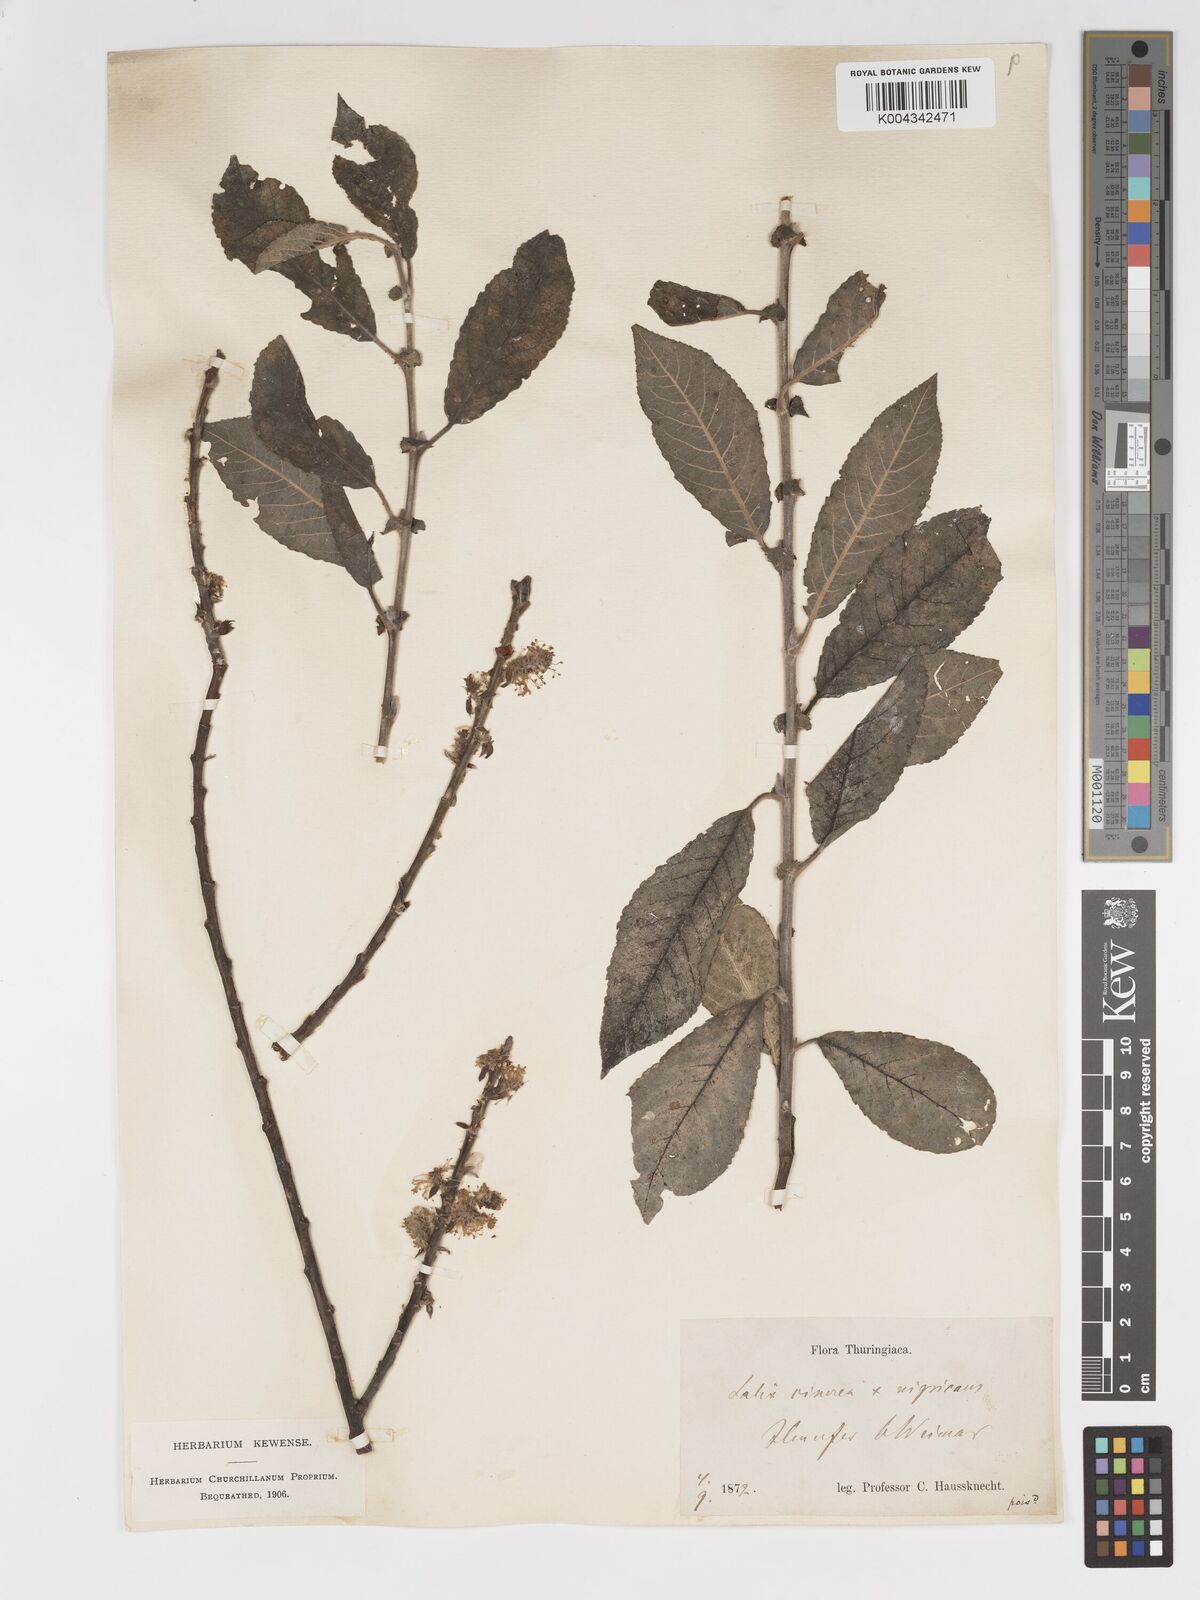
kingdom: Plantae
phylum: Tracheophyta
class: Magnoliopsida
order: Malpighiales
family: Salicaceae
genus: Salix
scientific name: Salix
